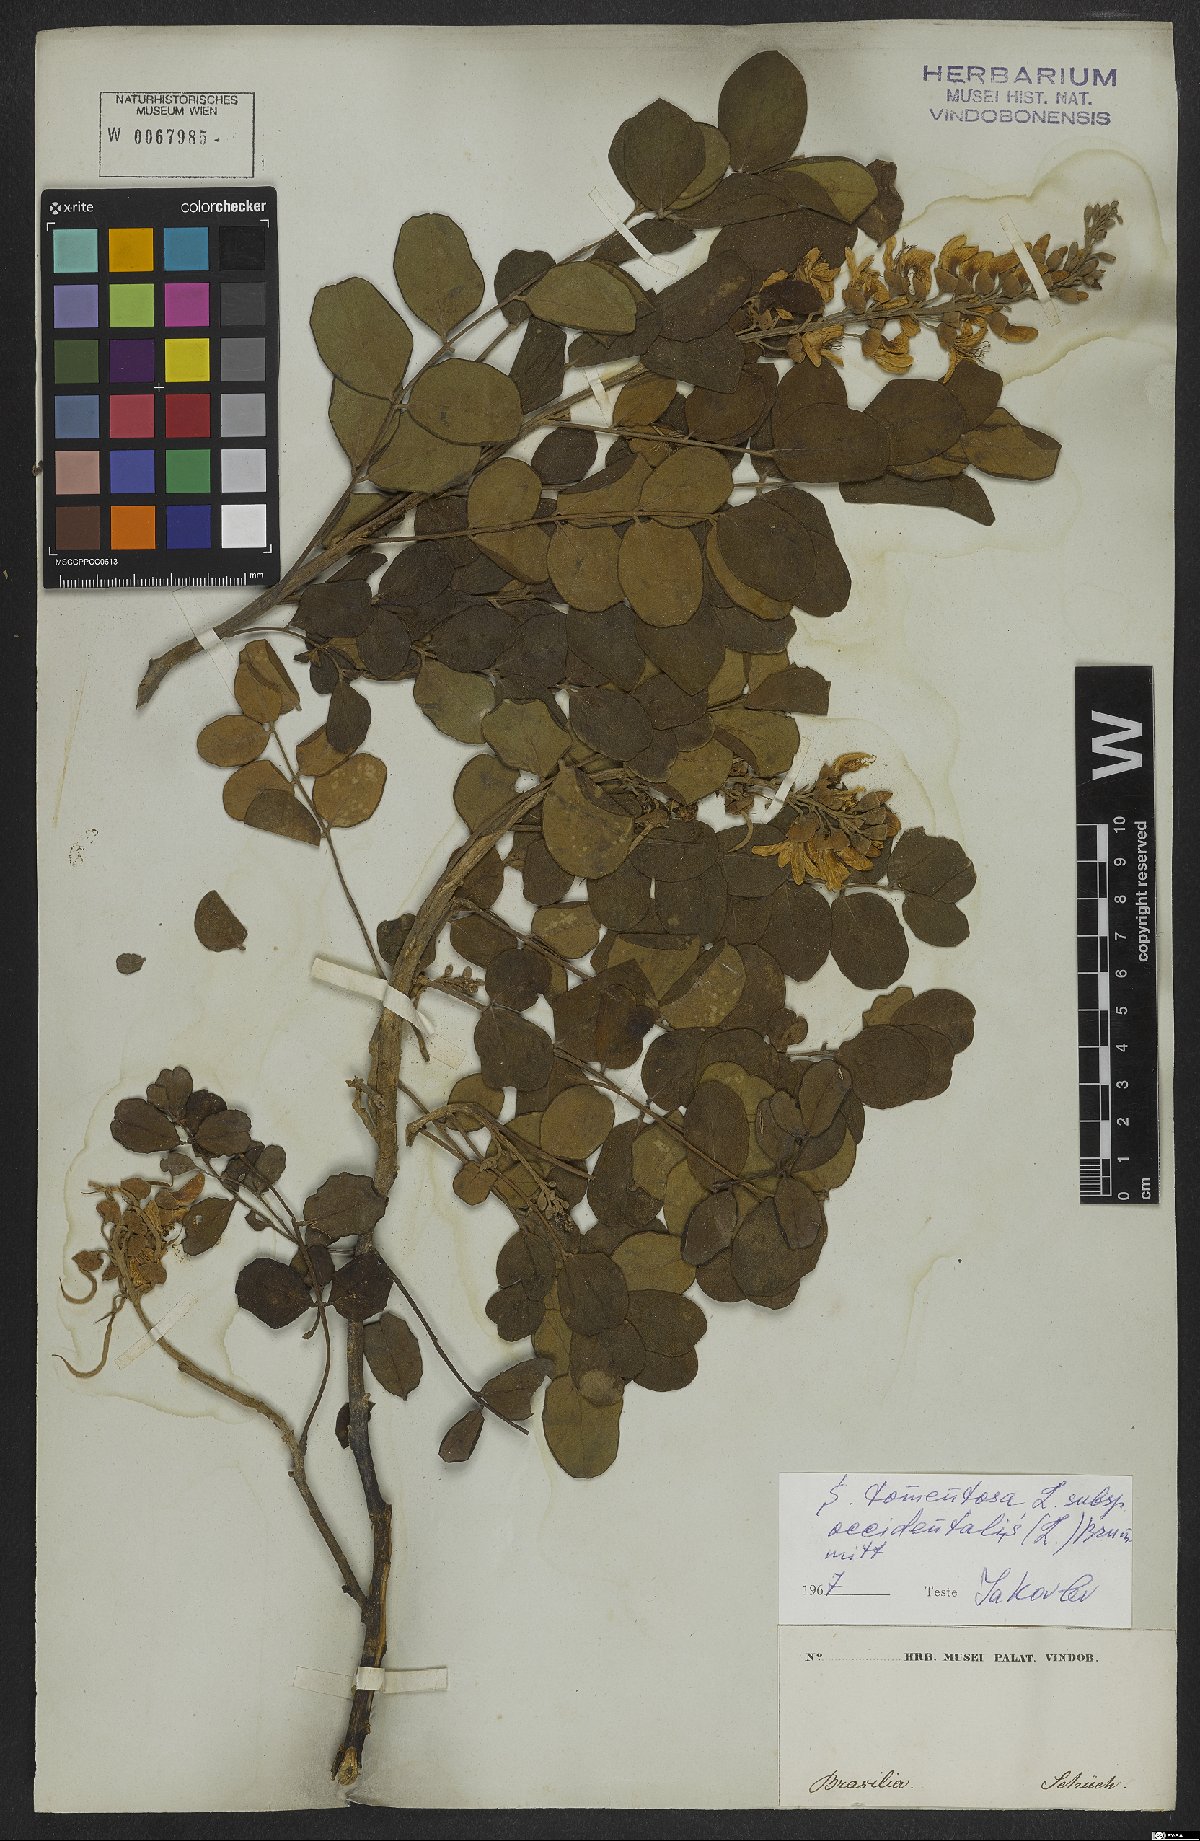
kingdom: Plantae
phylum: Tracheophyta
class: Magnoliopsida
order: Fabales
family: Fabaceae
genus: Sophora
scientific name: Sophora tomentosa
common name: Yellow necklacepod
